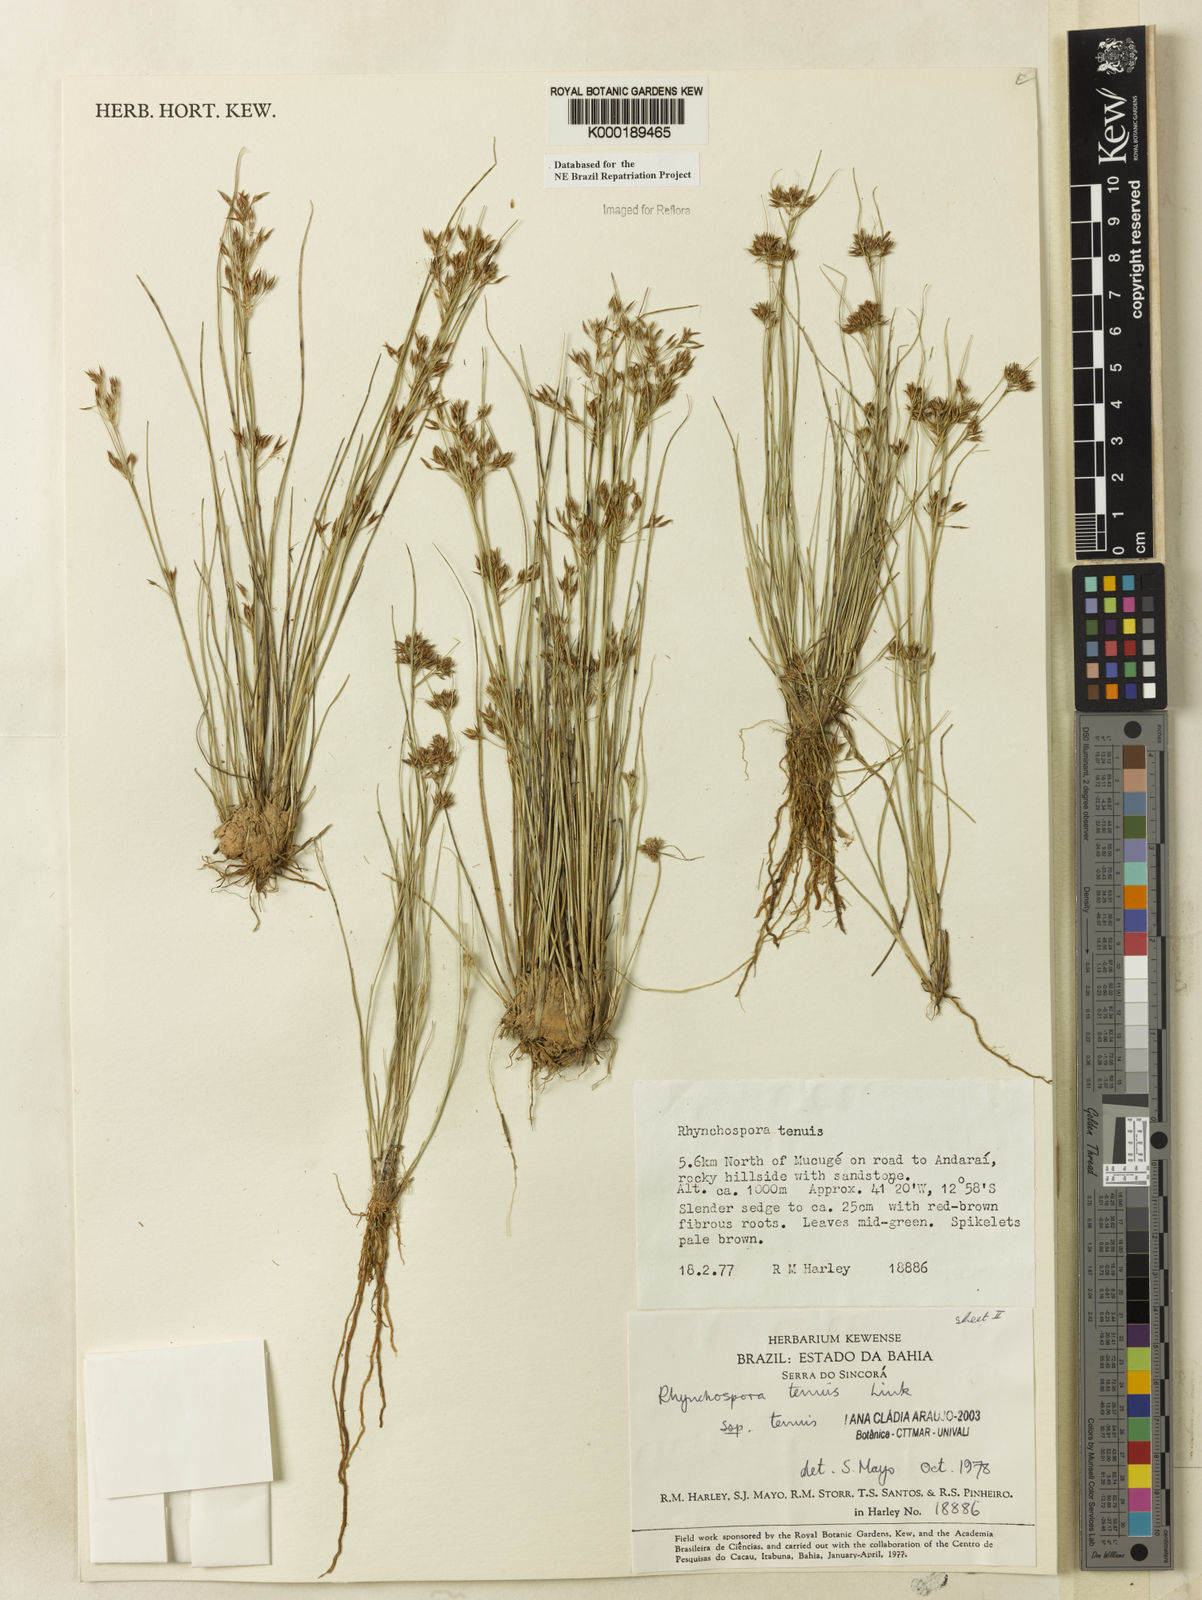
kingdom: Plantae
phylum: Tracheophyta
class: Liliopsida
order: Poales
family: Cyperaceae
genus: Rhynchospora
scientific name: Rhynchospora tenuis
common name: Quill beaksedge
